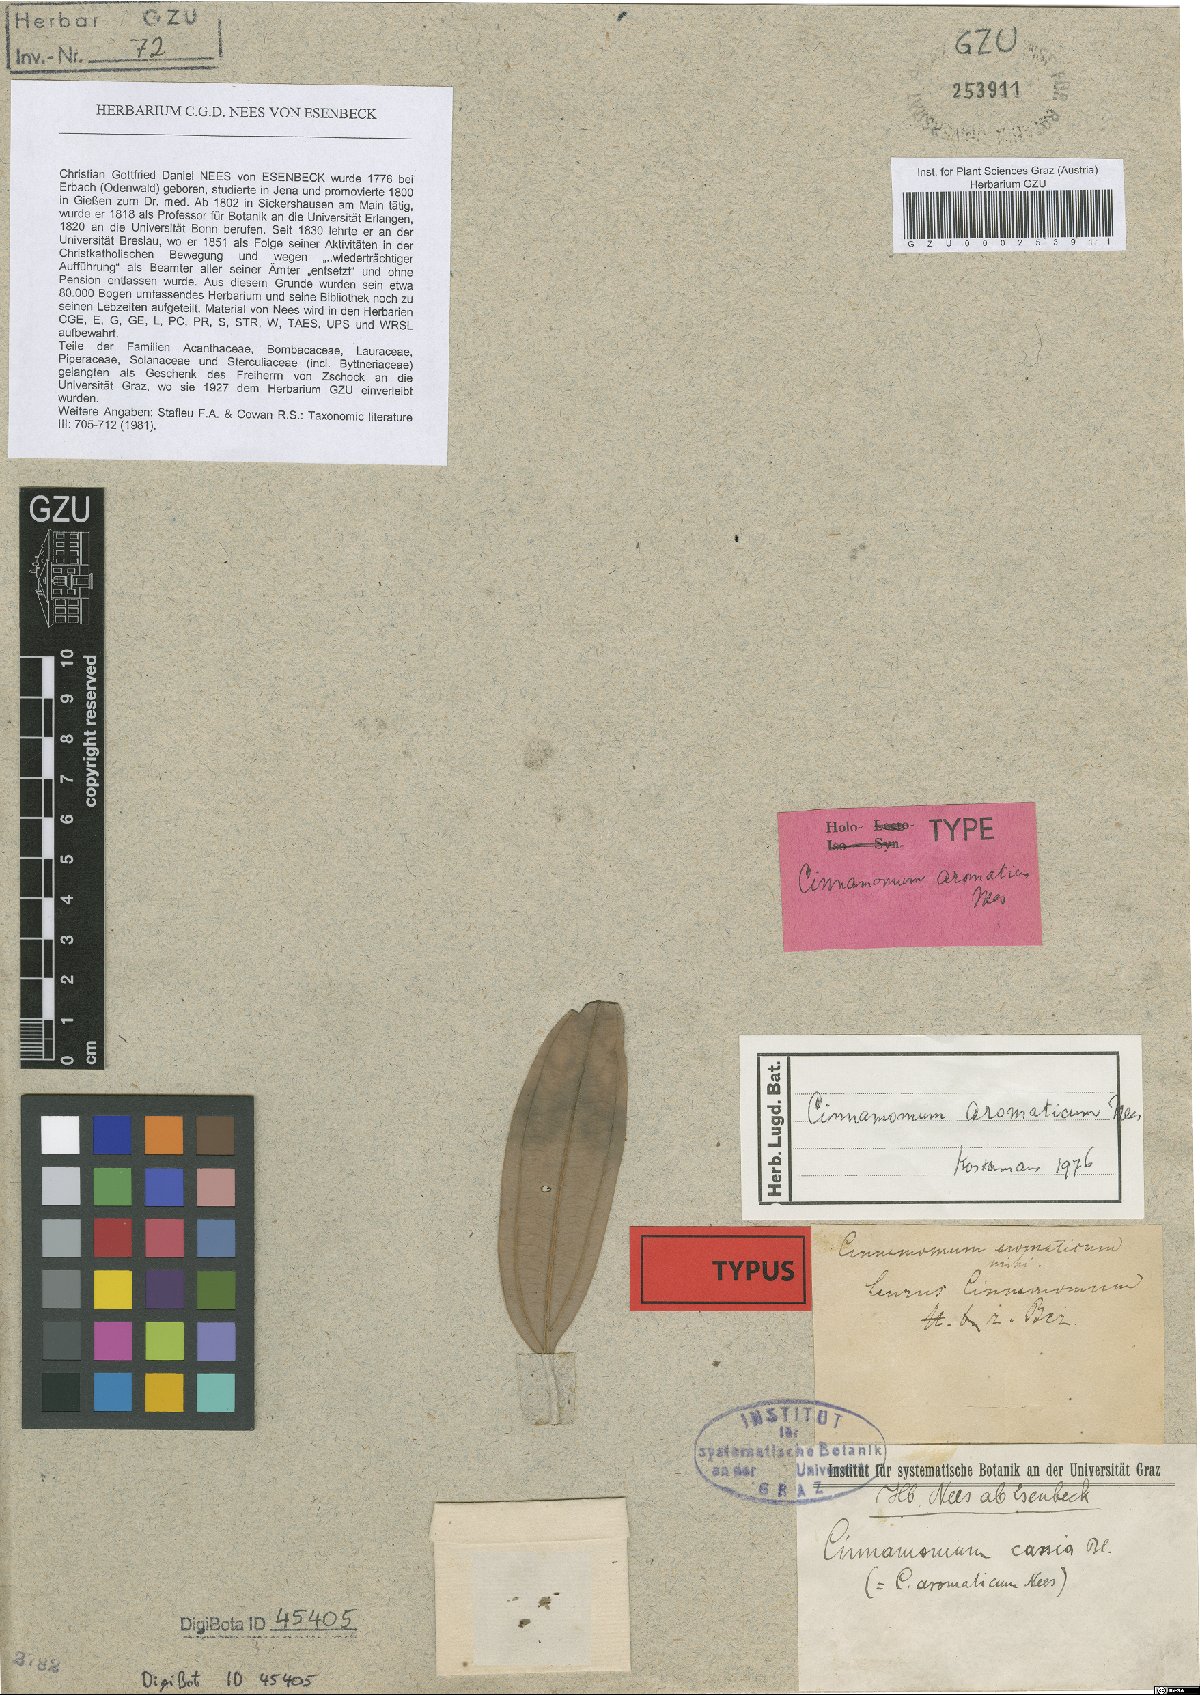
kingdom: Plantae
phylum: Tracheophyta
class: Magnoliopsida
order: Laurales
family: Lauraceae
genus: Cinnamomum
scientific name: Cinnamomum aromaticum
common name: Chinese cinnamon
